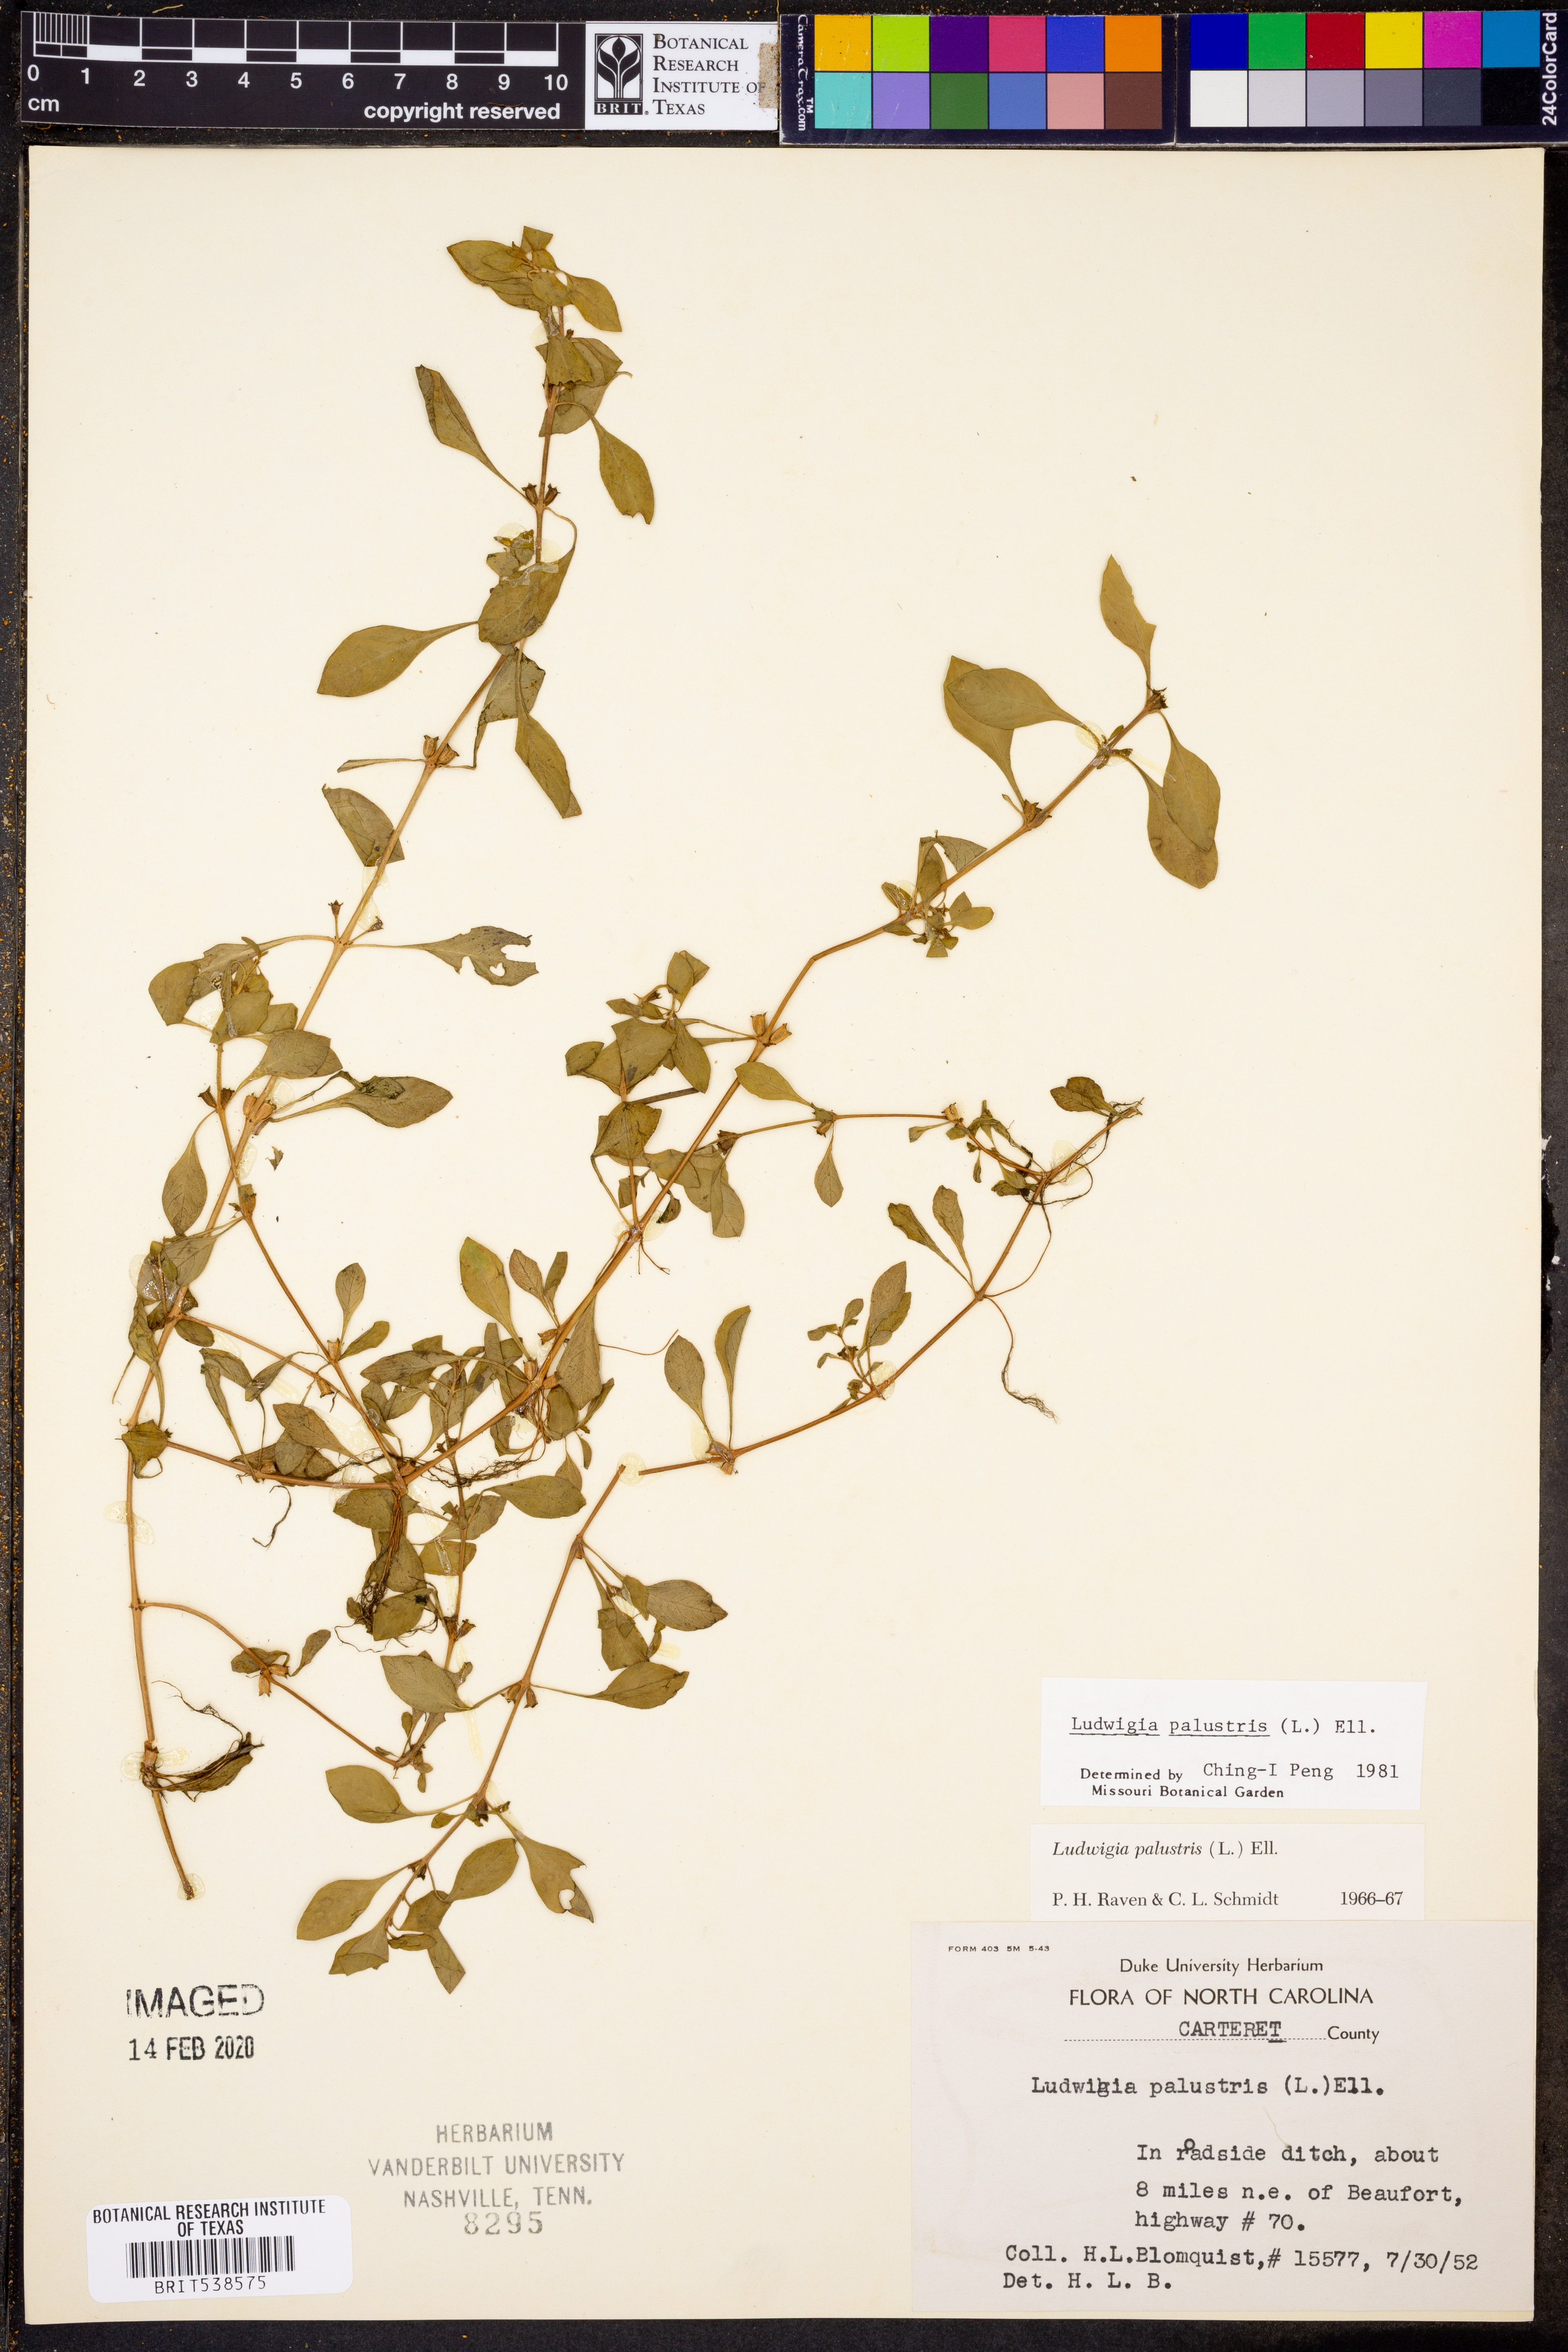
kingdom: Plantae
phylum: Tracheophyta
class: Magnoliopsida
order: Myrtales
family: Onagraceae
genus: Ludwigia
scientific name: Ludwigia palustris
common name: Hampshire-purslane
